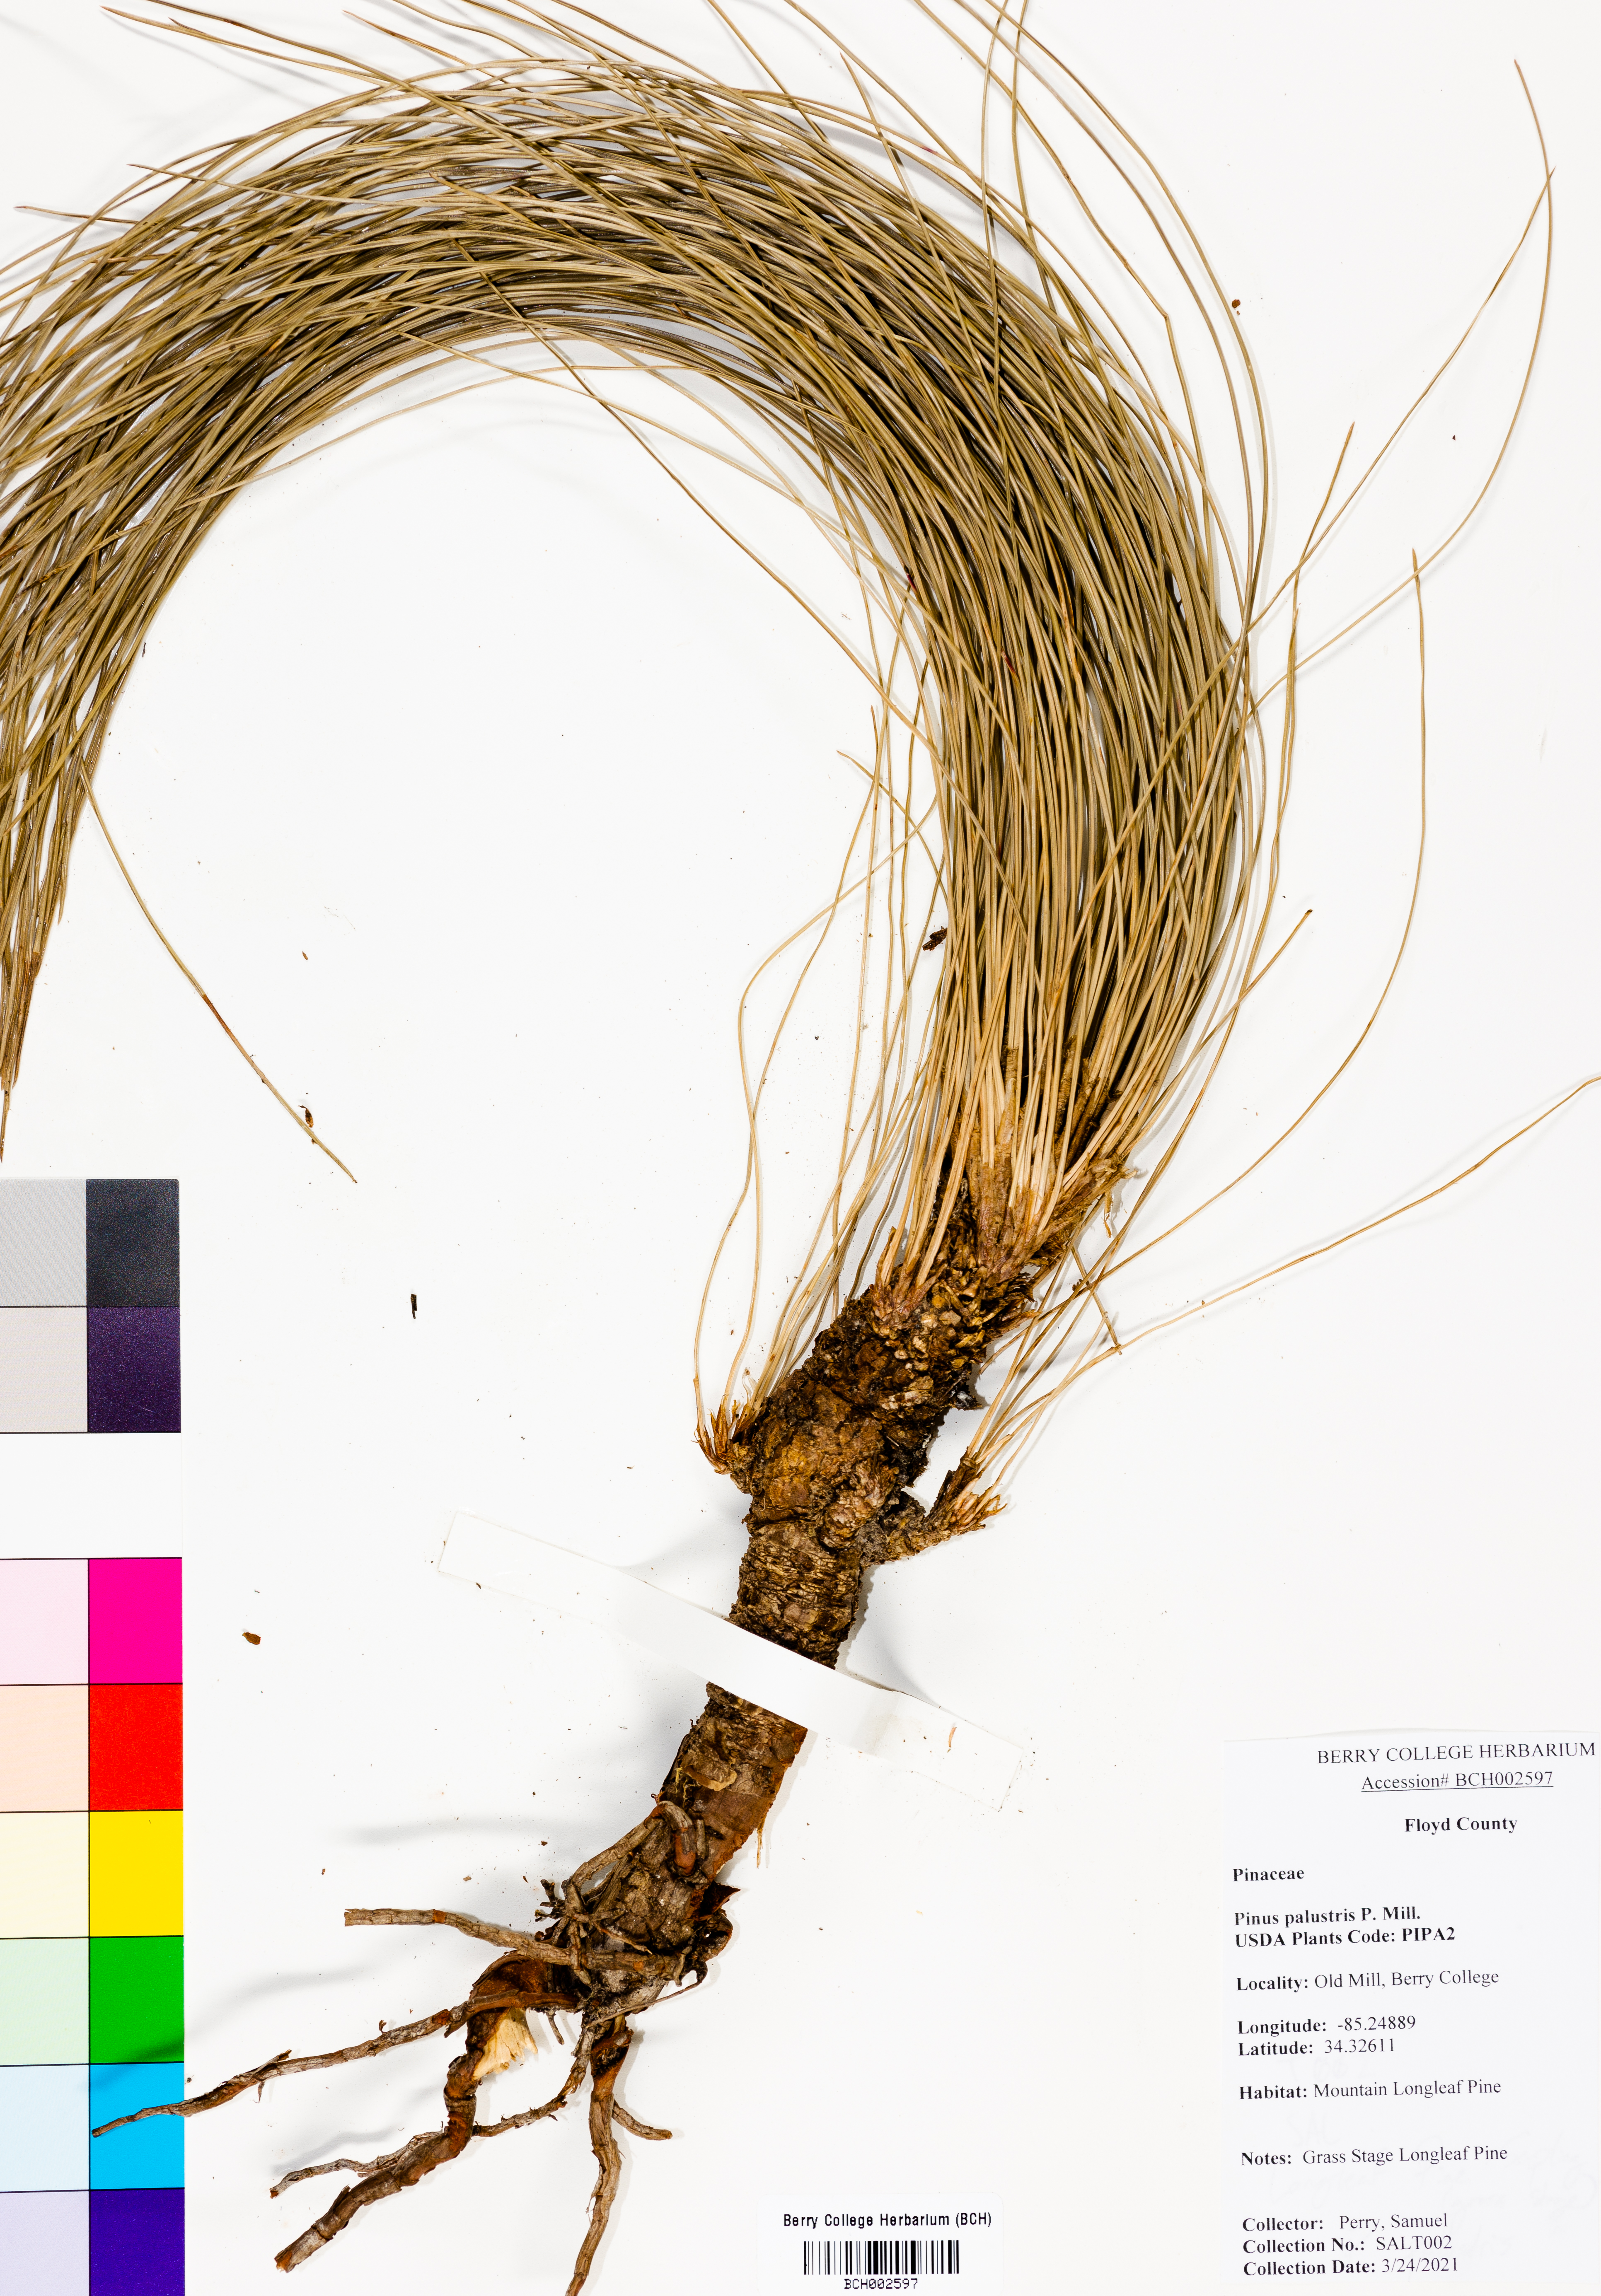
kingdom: Plantae
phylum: Tracheophyta
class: Pinopsida
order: Pinales
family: Pinaceae
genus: Pinus
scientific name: Pinus palustris
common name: Longleaf pine
